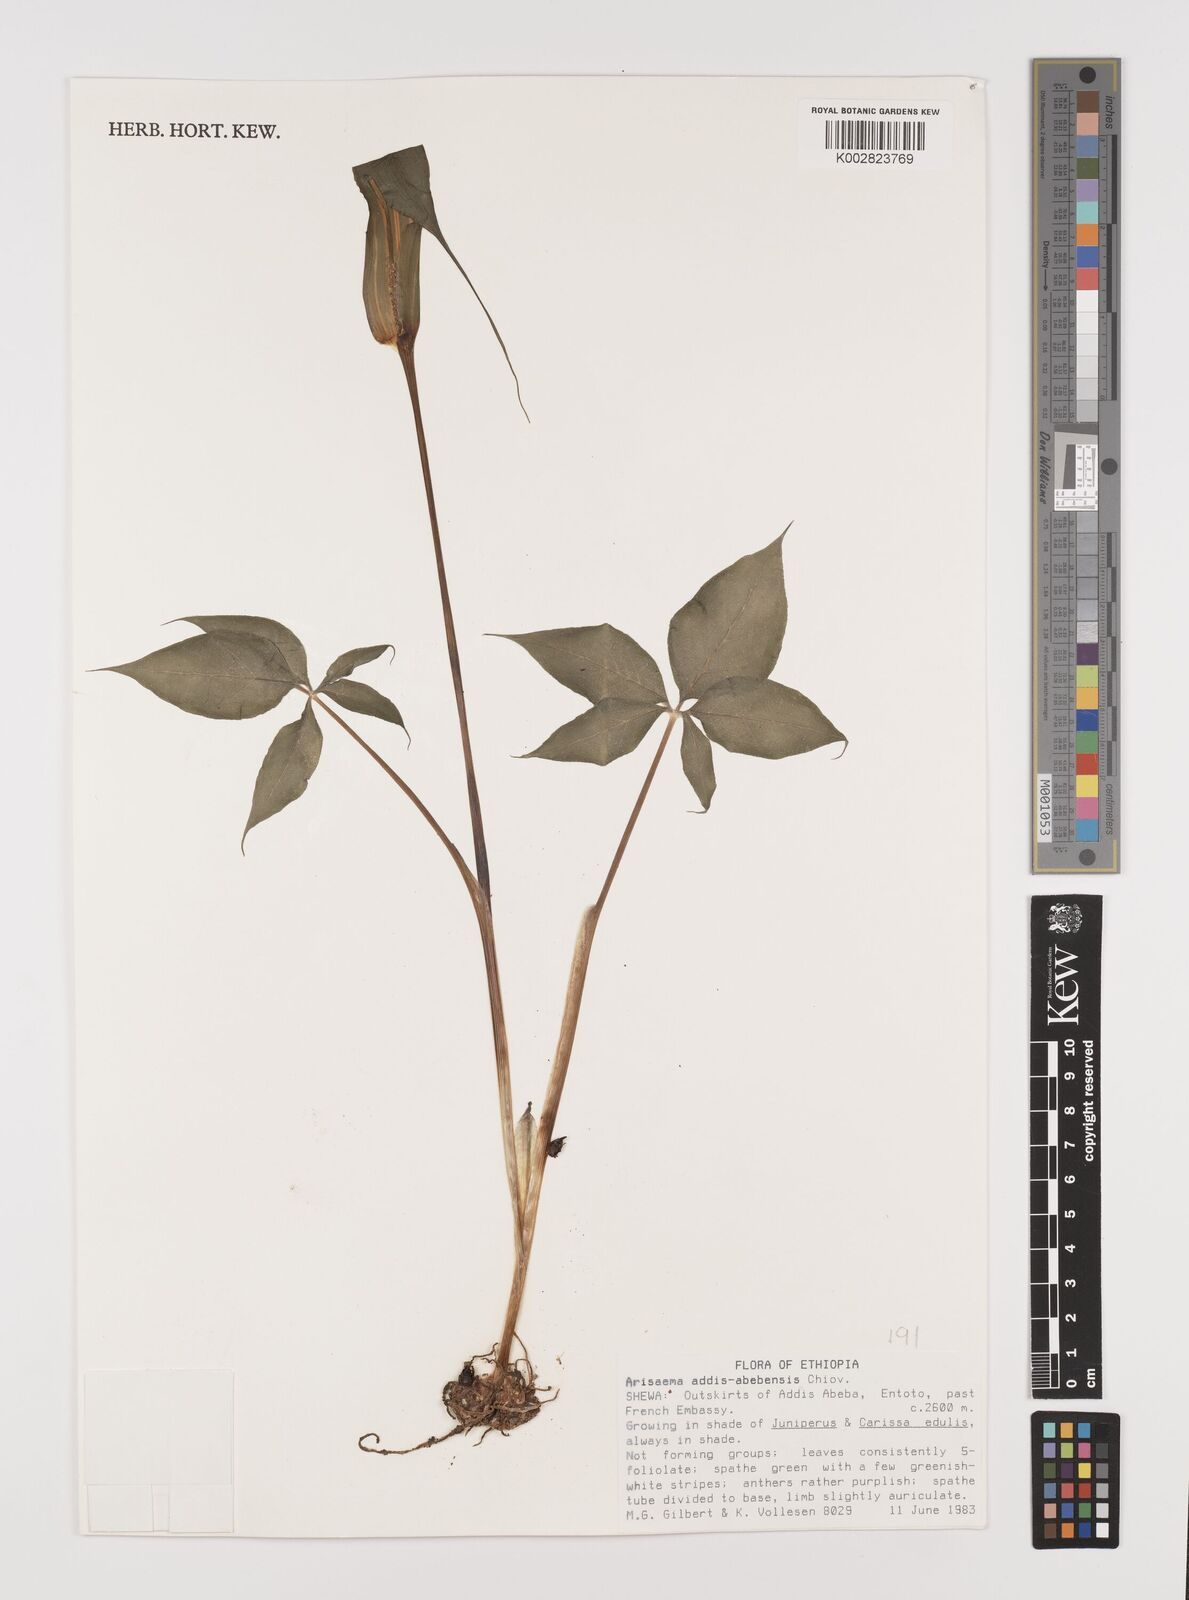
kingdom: Plantae
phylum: Tracheophyta
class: Liliopsida
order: Alismatales
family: Araceae
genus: Arisaema
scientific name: Arisaema schimperianum
